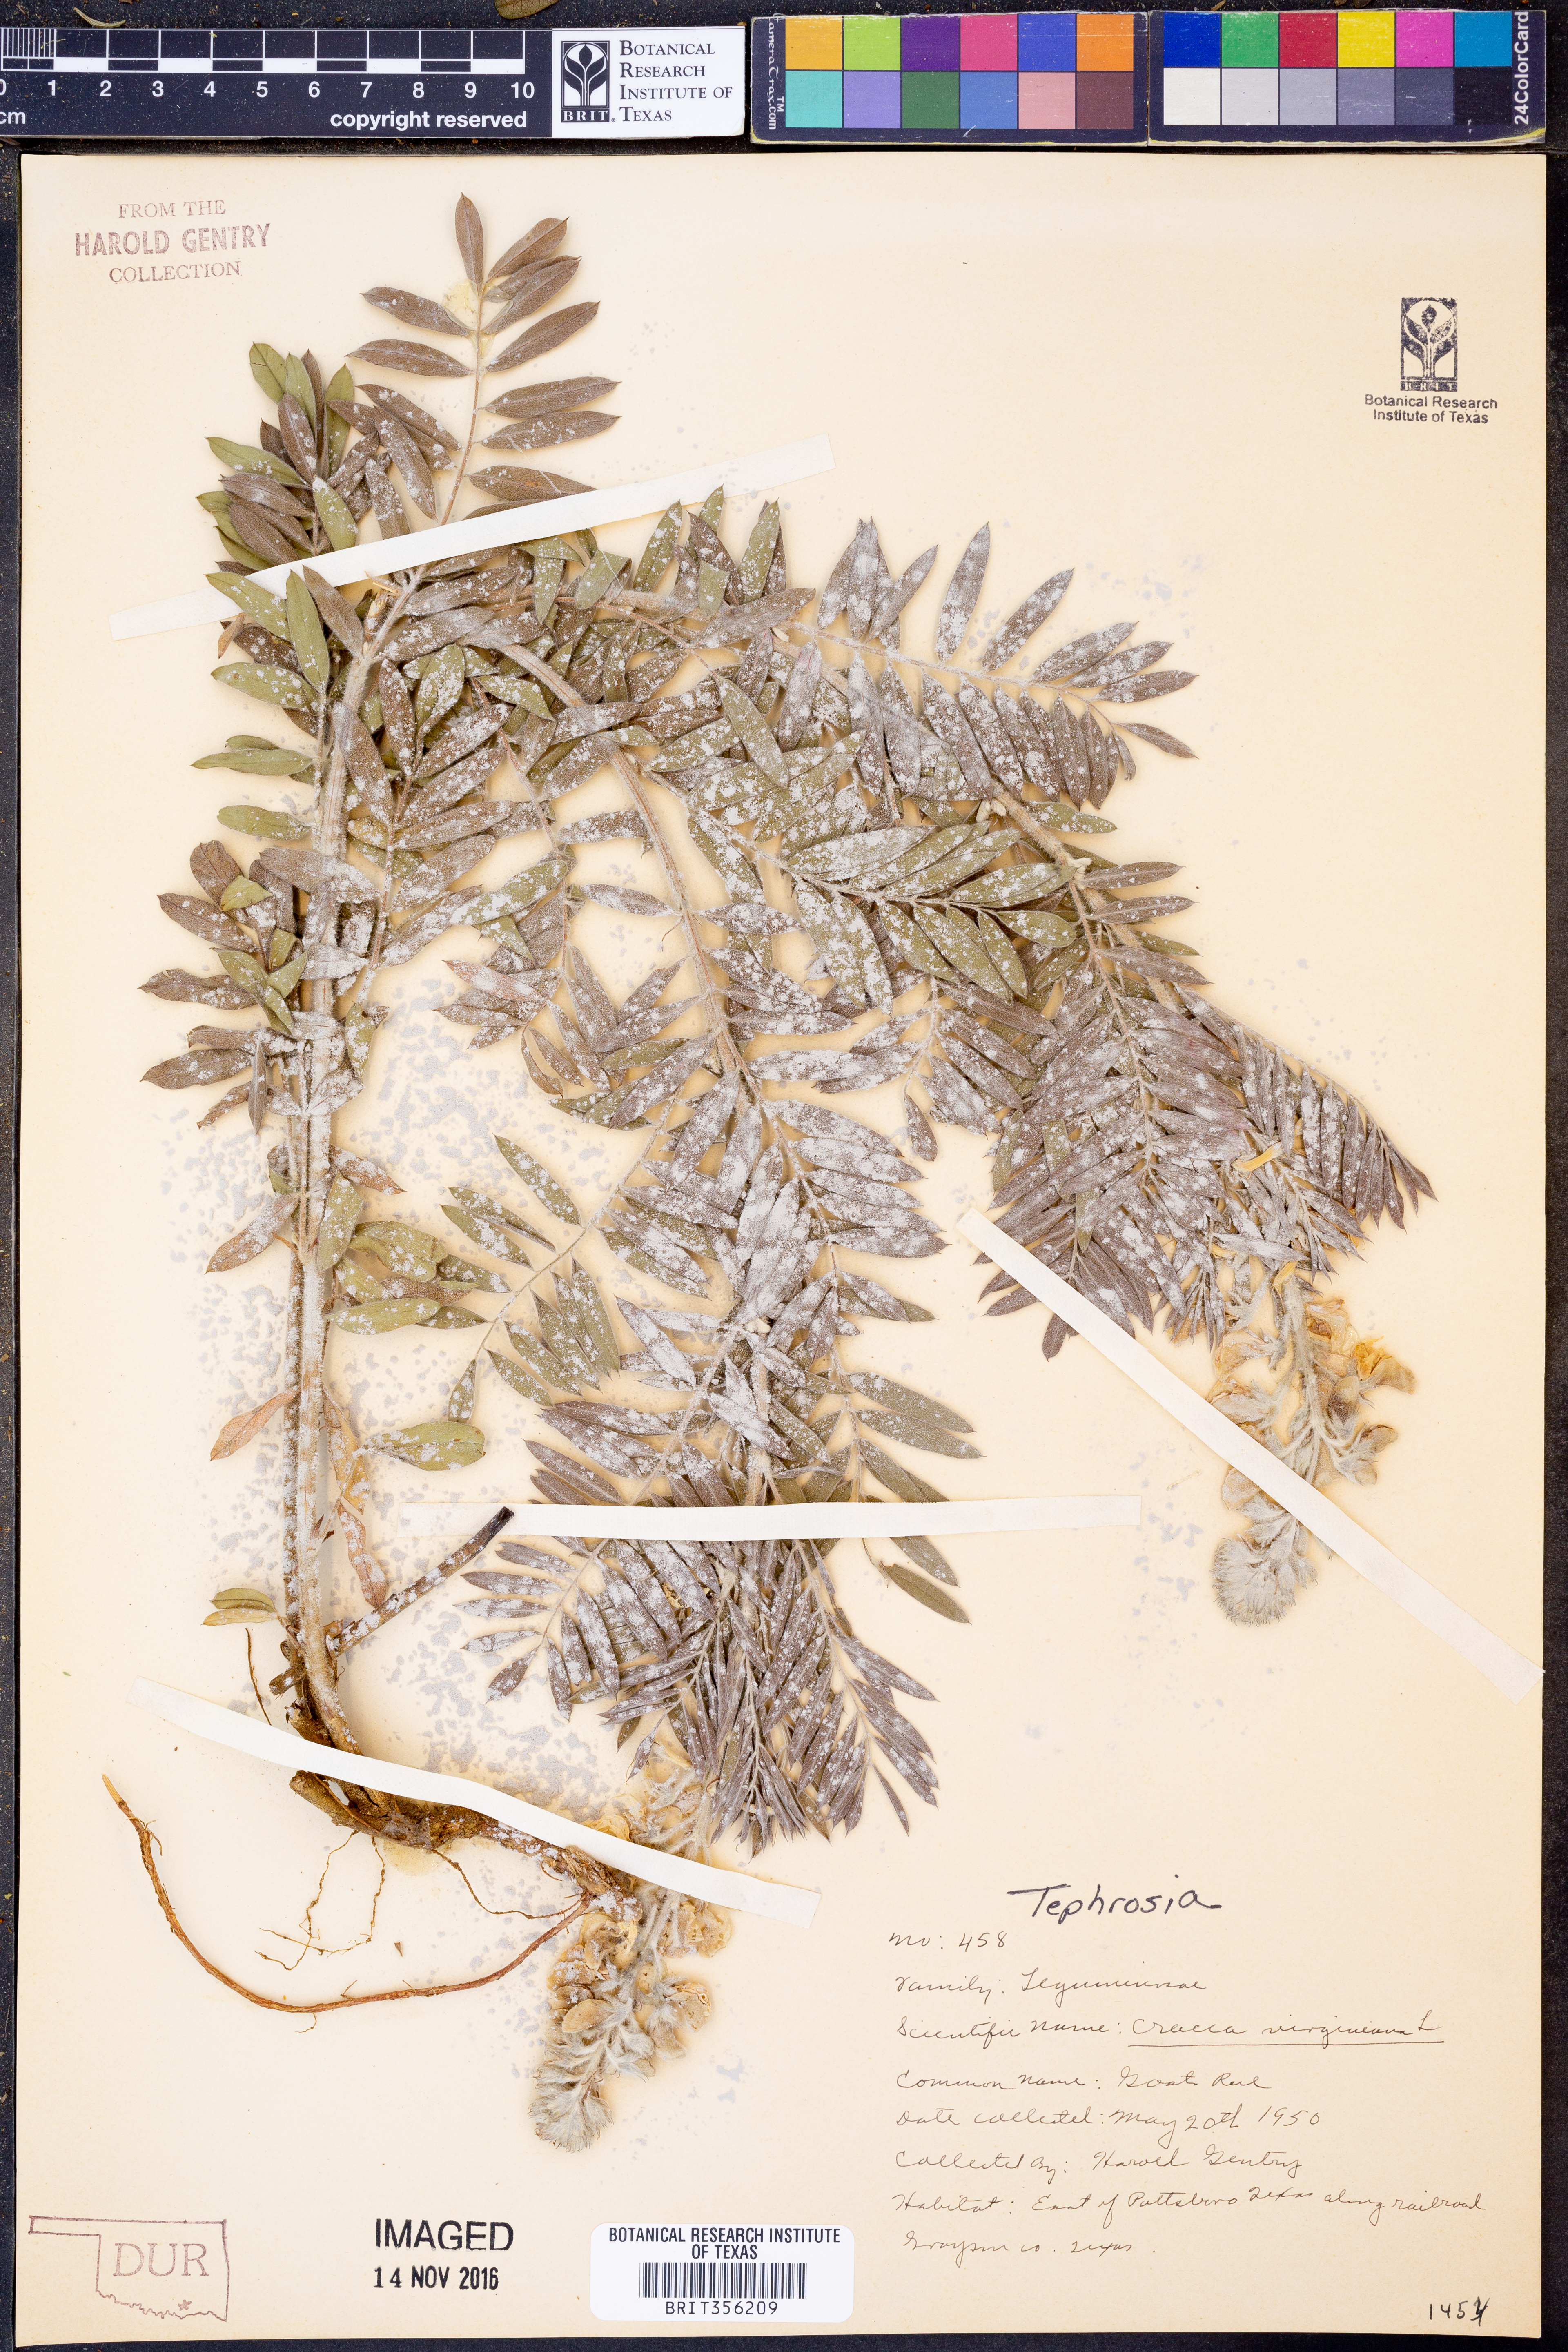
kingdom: Plantae
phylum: Tracheophyta
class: Magnoliopsida
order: Fabales
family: Fabaceae
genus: Tephrosia
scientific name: Tephrosia virginiana
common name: Rabbit-pea
